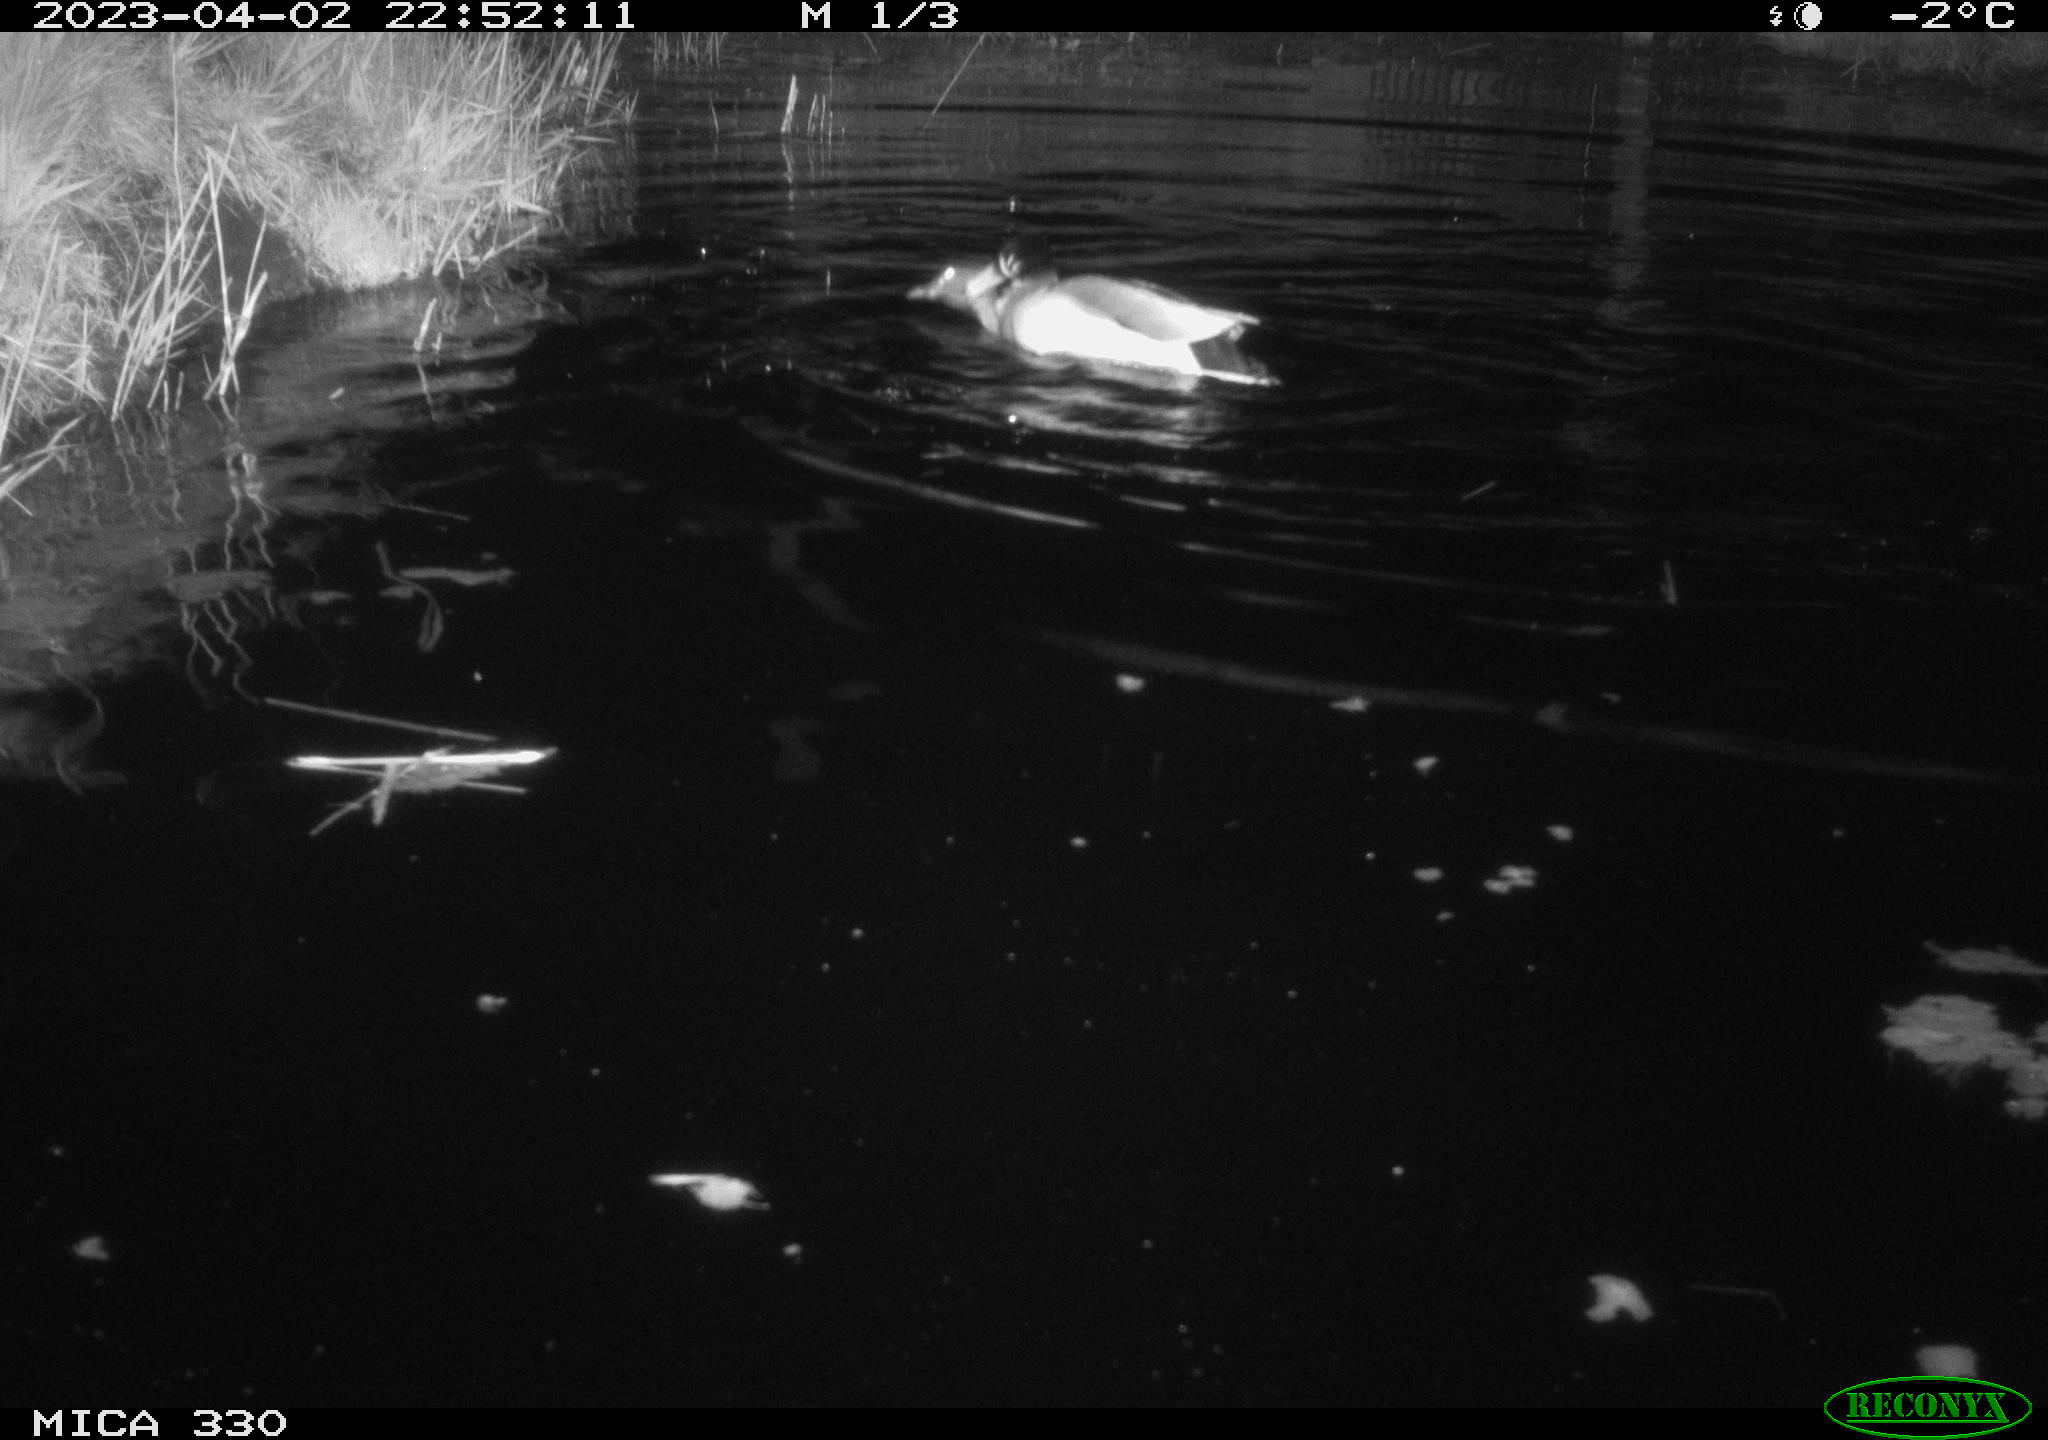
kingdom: Animalia
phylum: Chordata
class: Aves
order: Anseriformes
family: Anatidae
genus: Anas
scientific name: Anas
